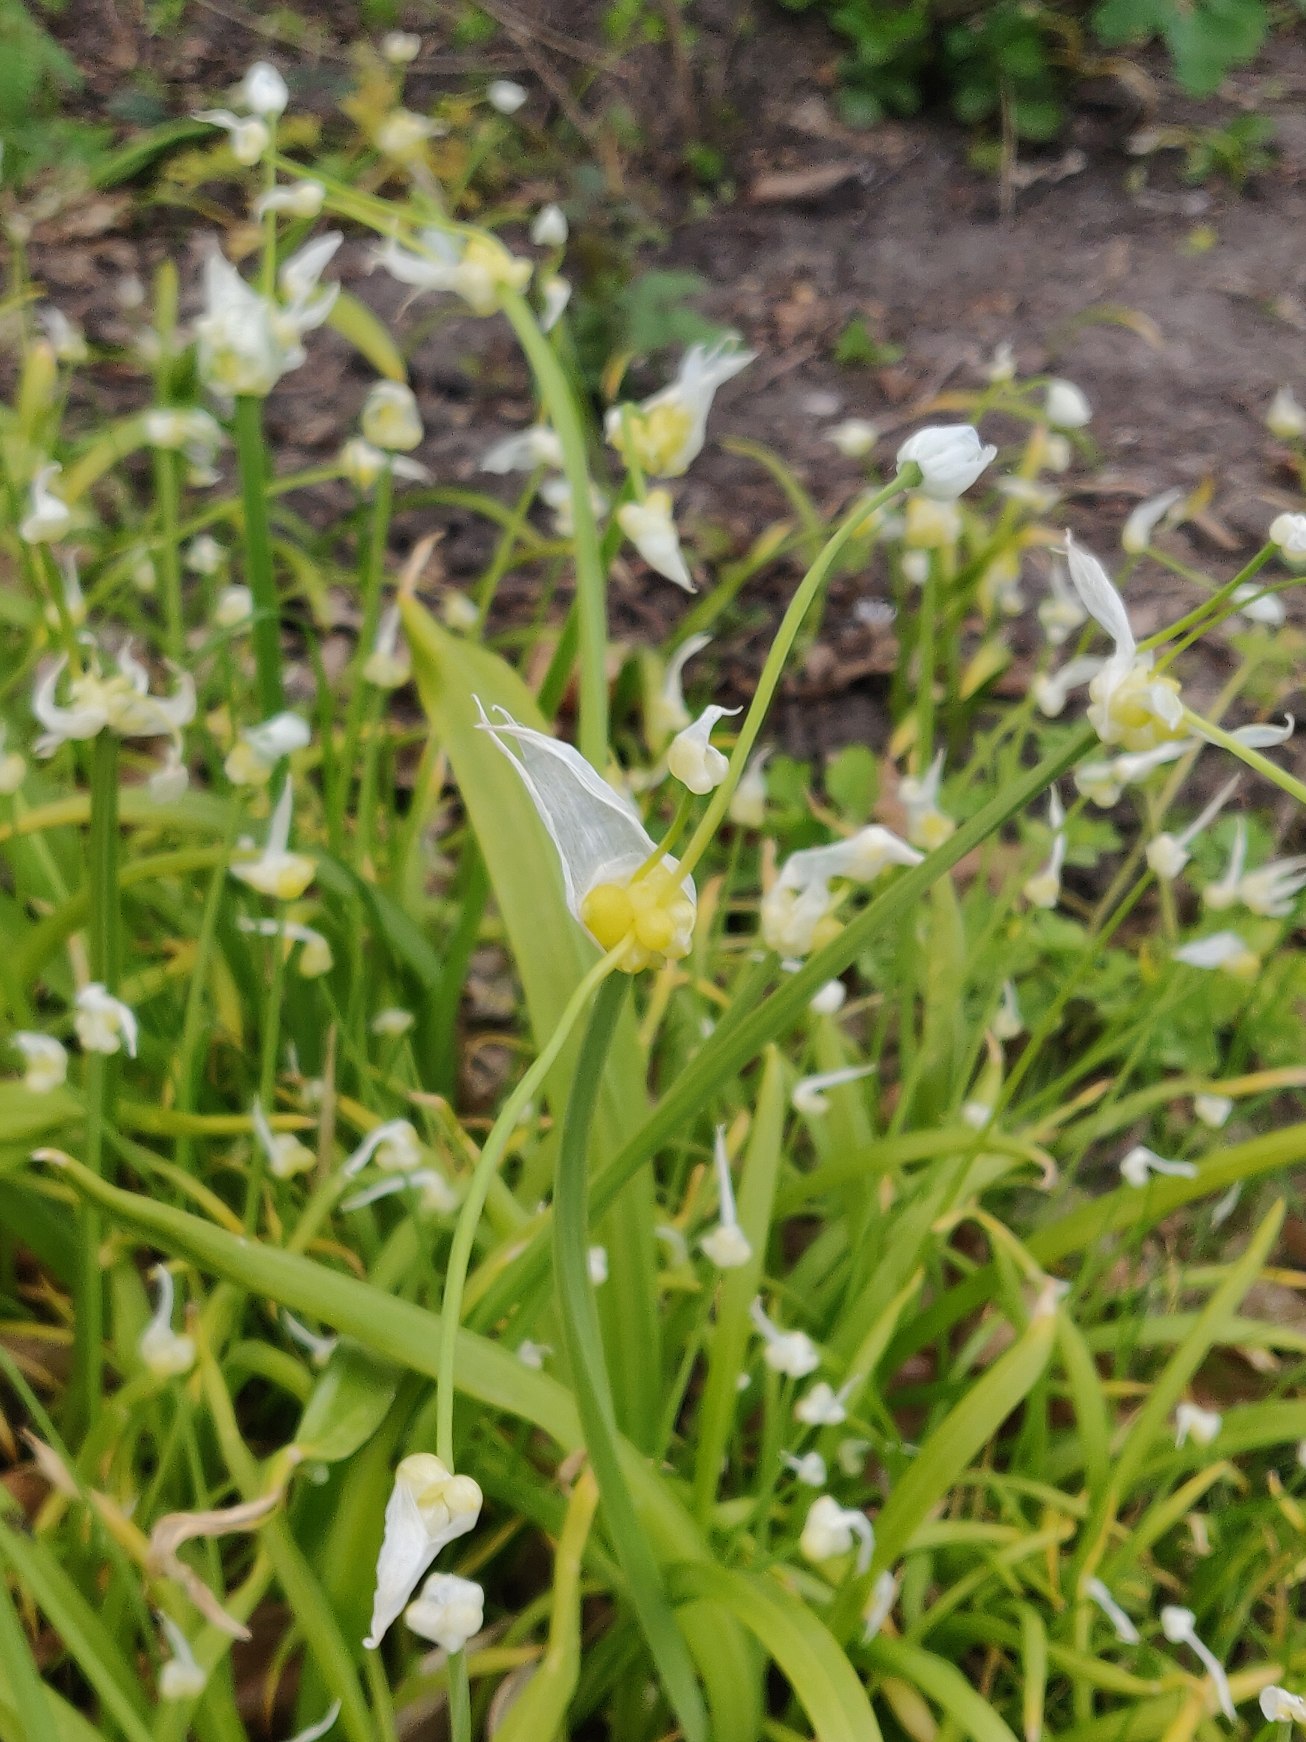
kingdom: Plantae
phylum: Tracheophyta
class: Liliopsida
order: Asparagales
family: Amaryllidaceae
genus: Allium
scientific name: Allium paradoxum
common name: Spøjs løg
